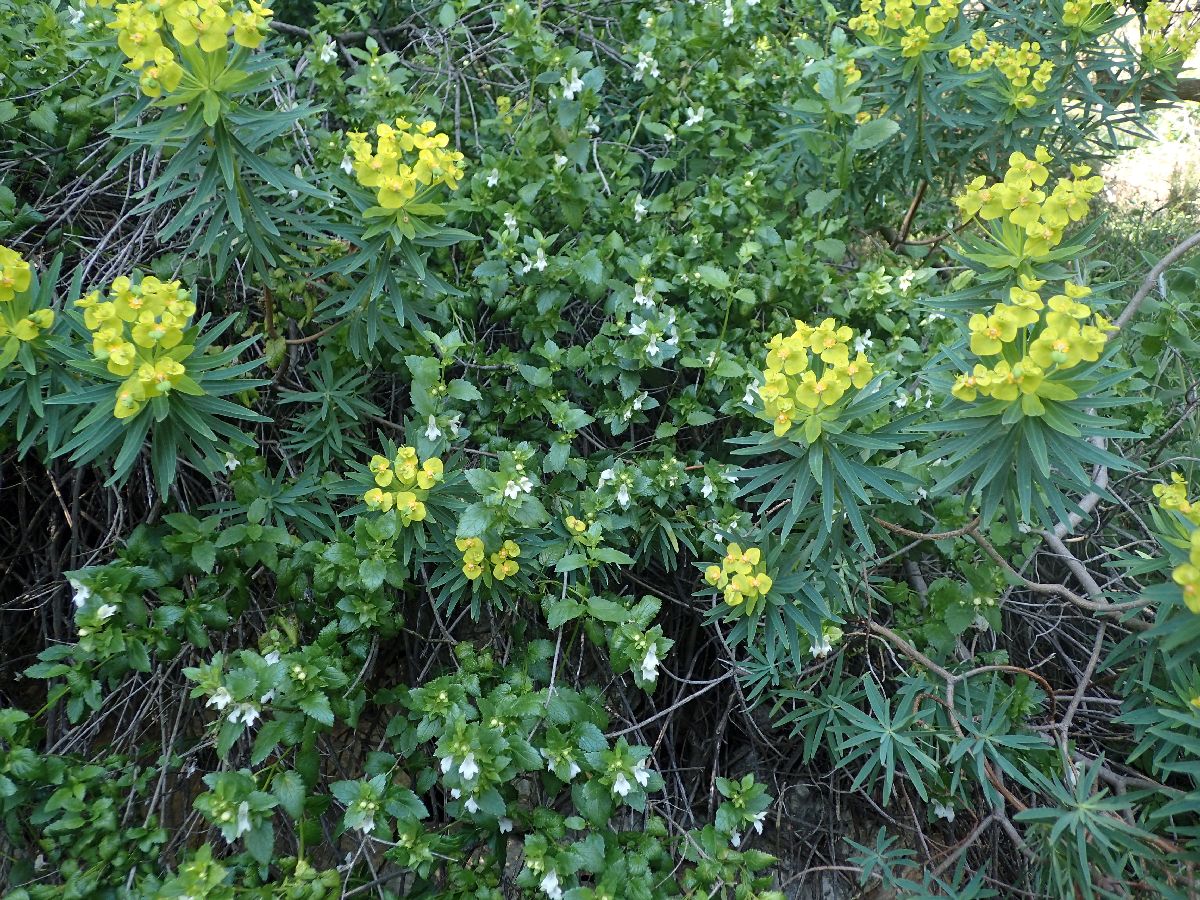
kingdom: Plantae
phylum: Tracheophyta
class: Magnoliopsida
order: Malpighiales
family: Euphorbiaceae
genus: Euphorbia
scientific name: Euphorbia dendroides
